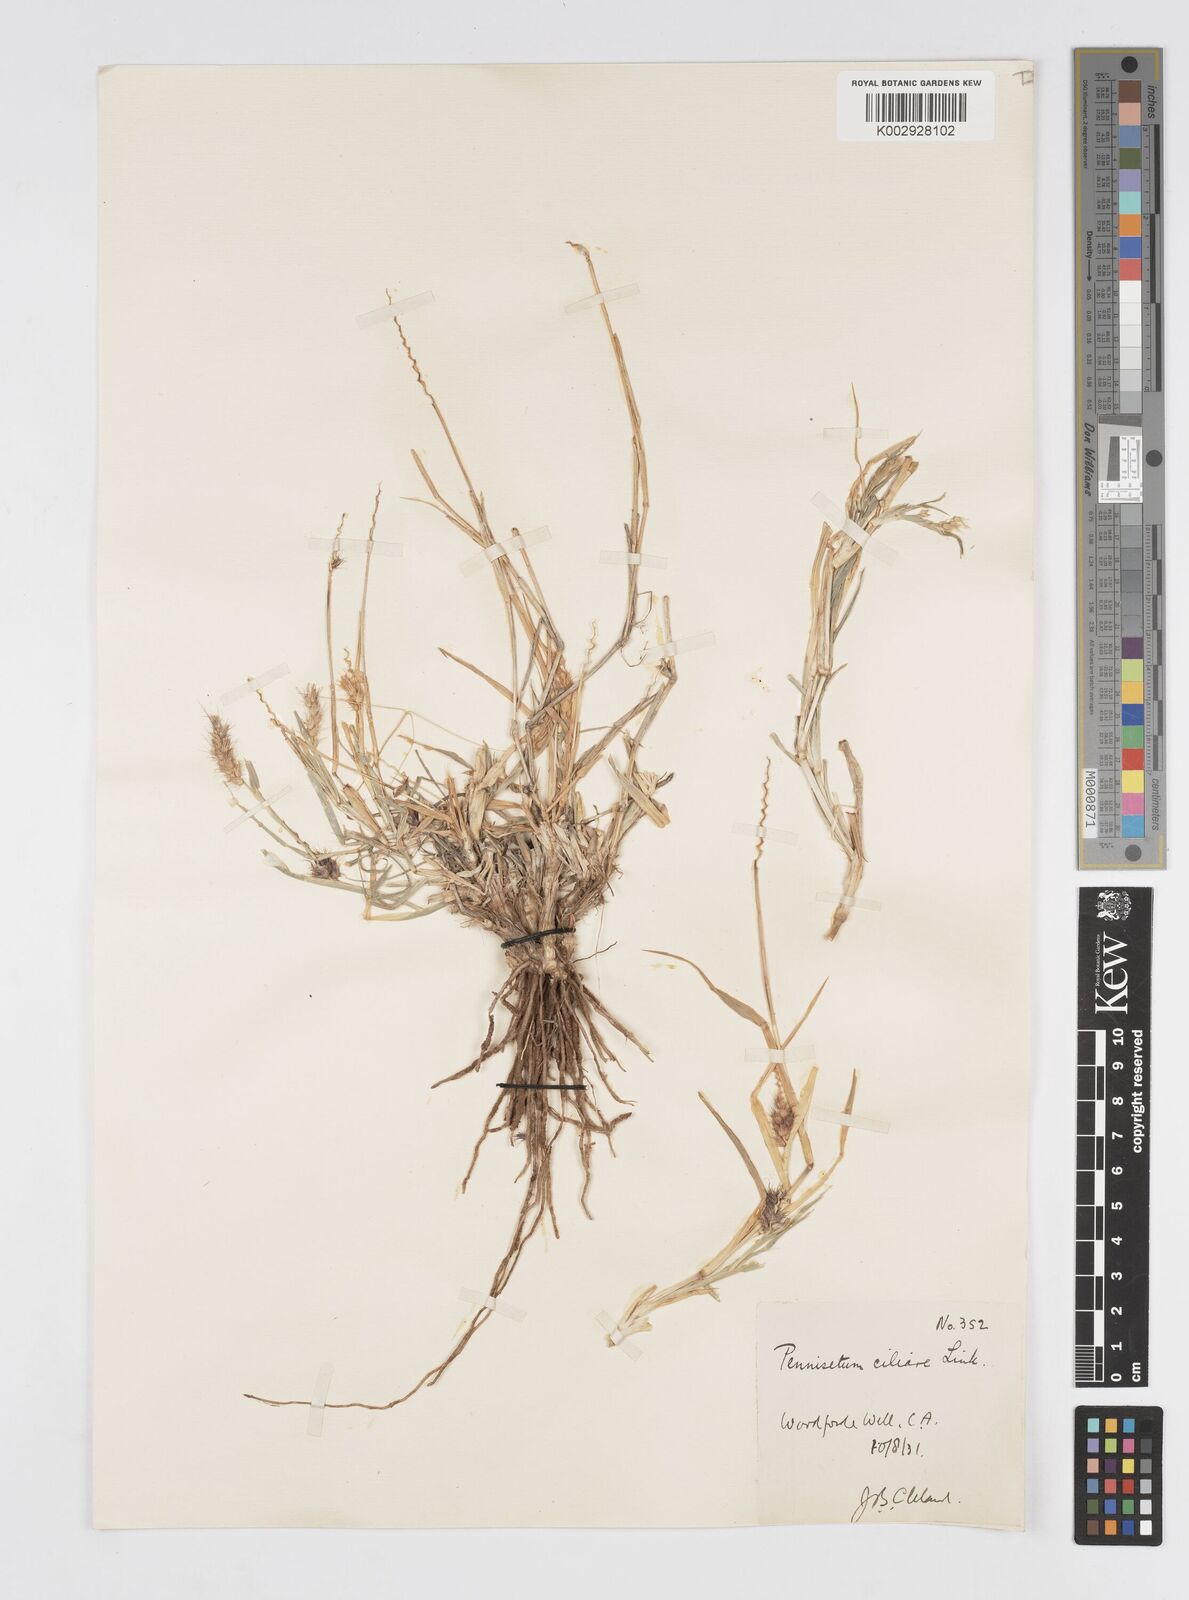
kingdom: Plantae
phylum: Tracheophyta
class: Liliopsida
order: Poales
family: Poaceae
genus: Cenchrus
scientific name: Cenchrus ciliaris
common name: Buffelgrass
